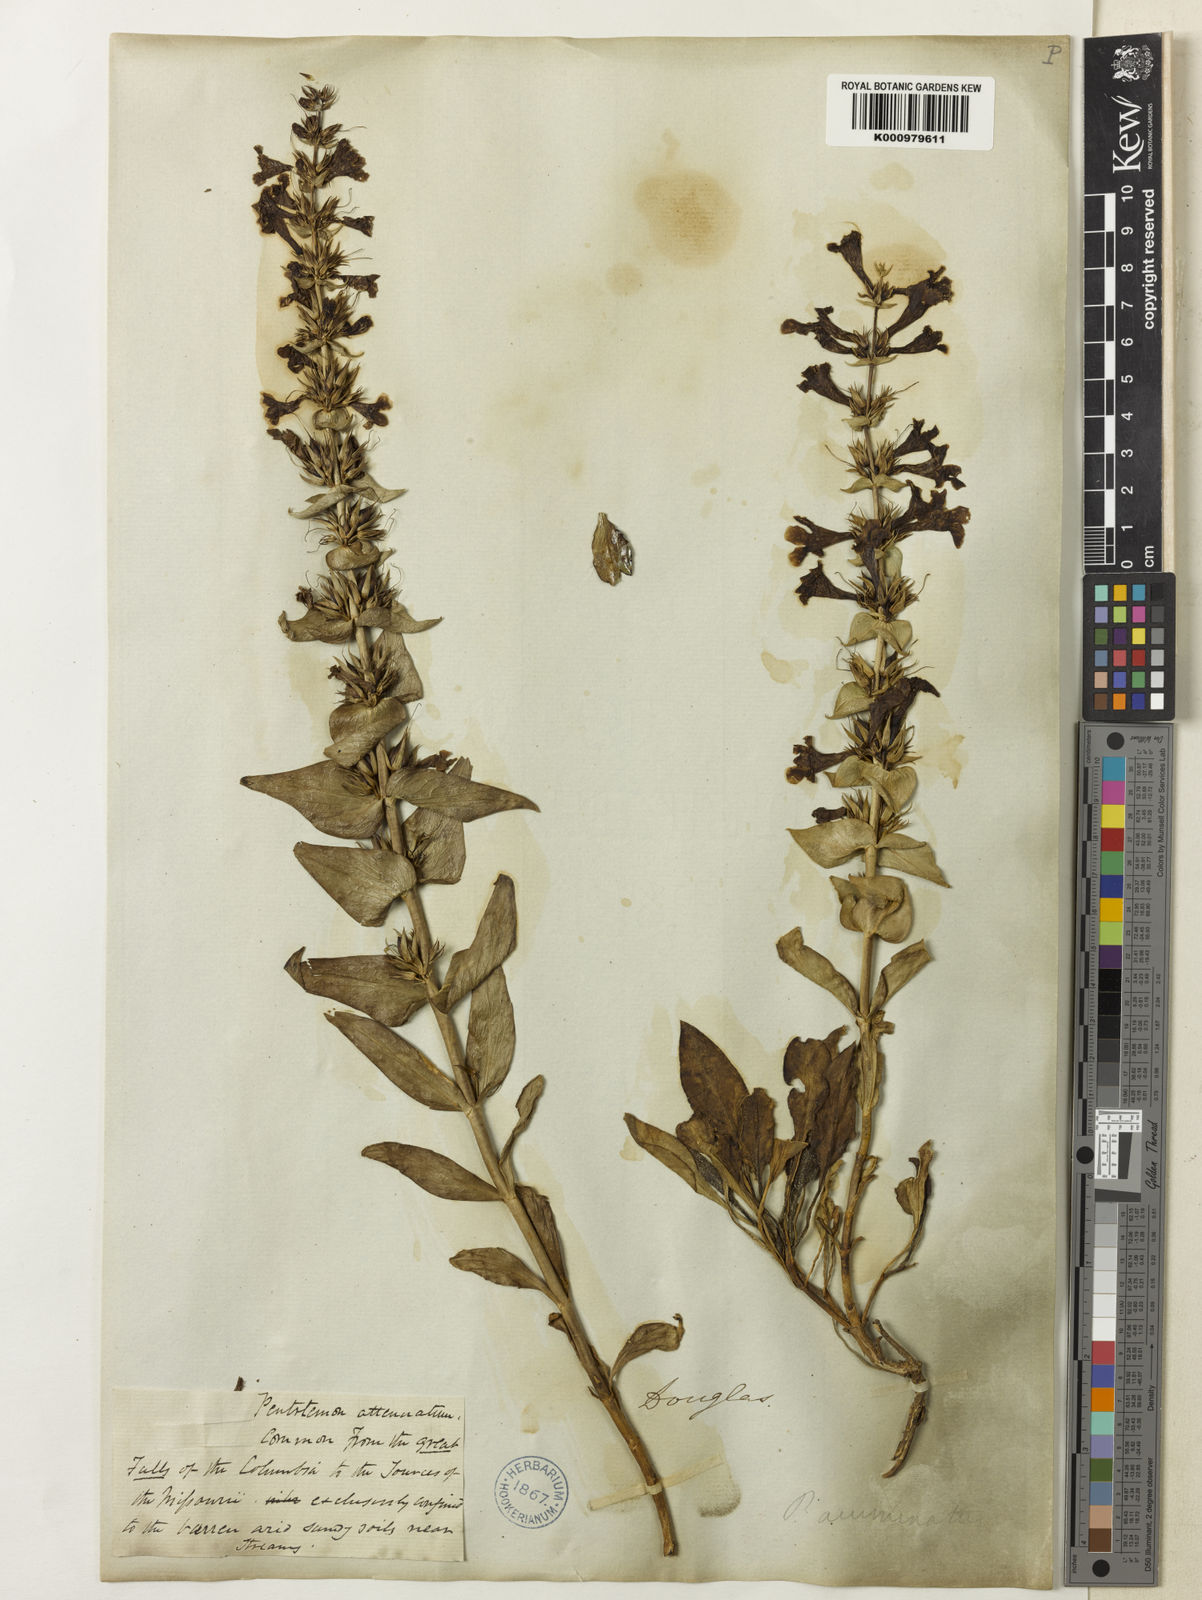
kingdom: Plantae
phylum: Tracheophyta
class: Magnoliopsida
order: Lamiales
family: Plantaginaceae
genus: Penstemon
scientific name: Penstemon acuminatus
